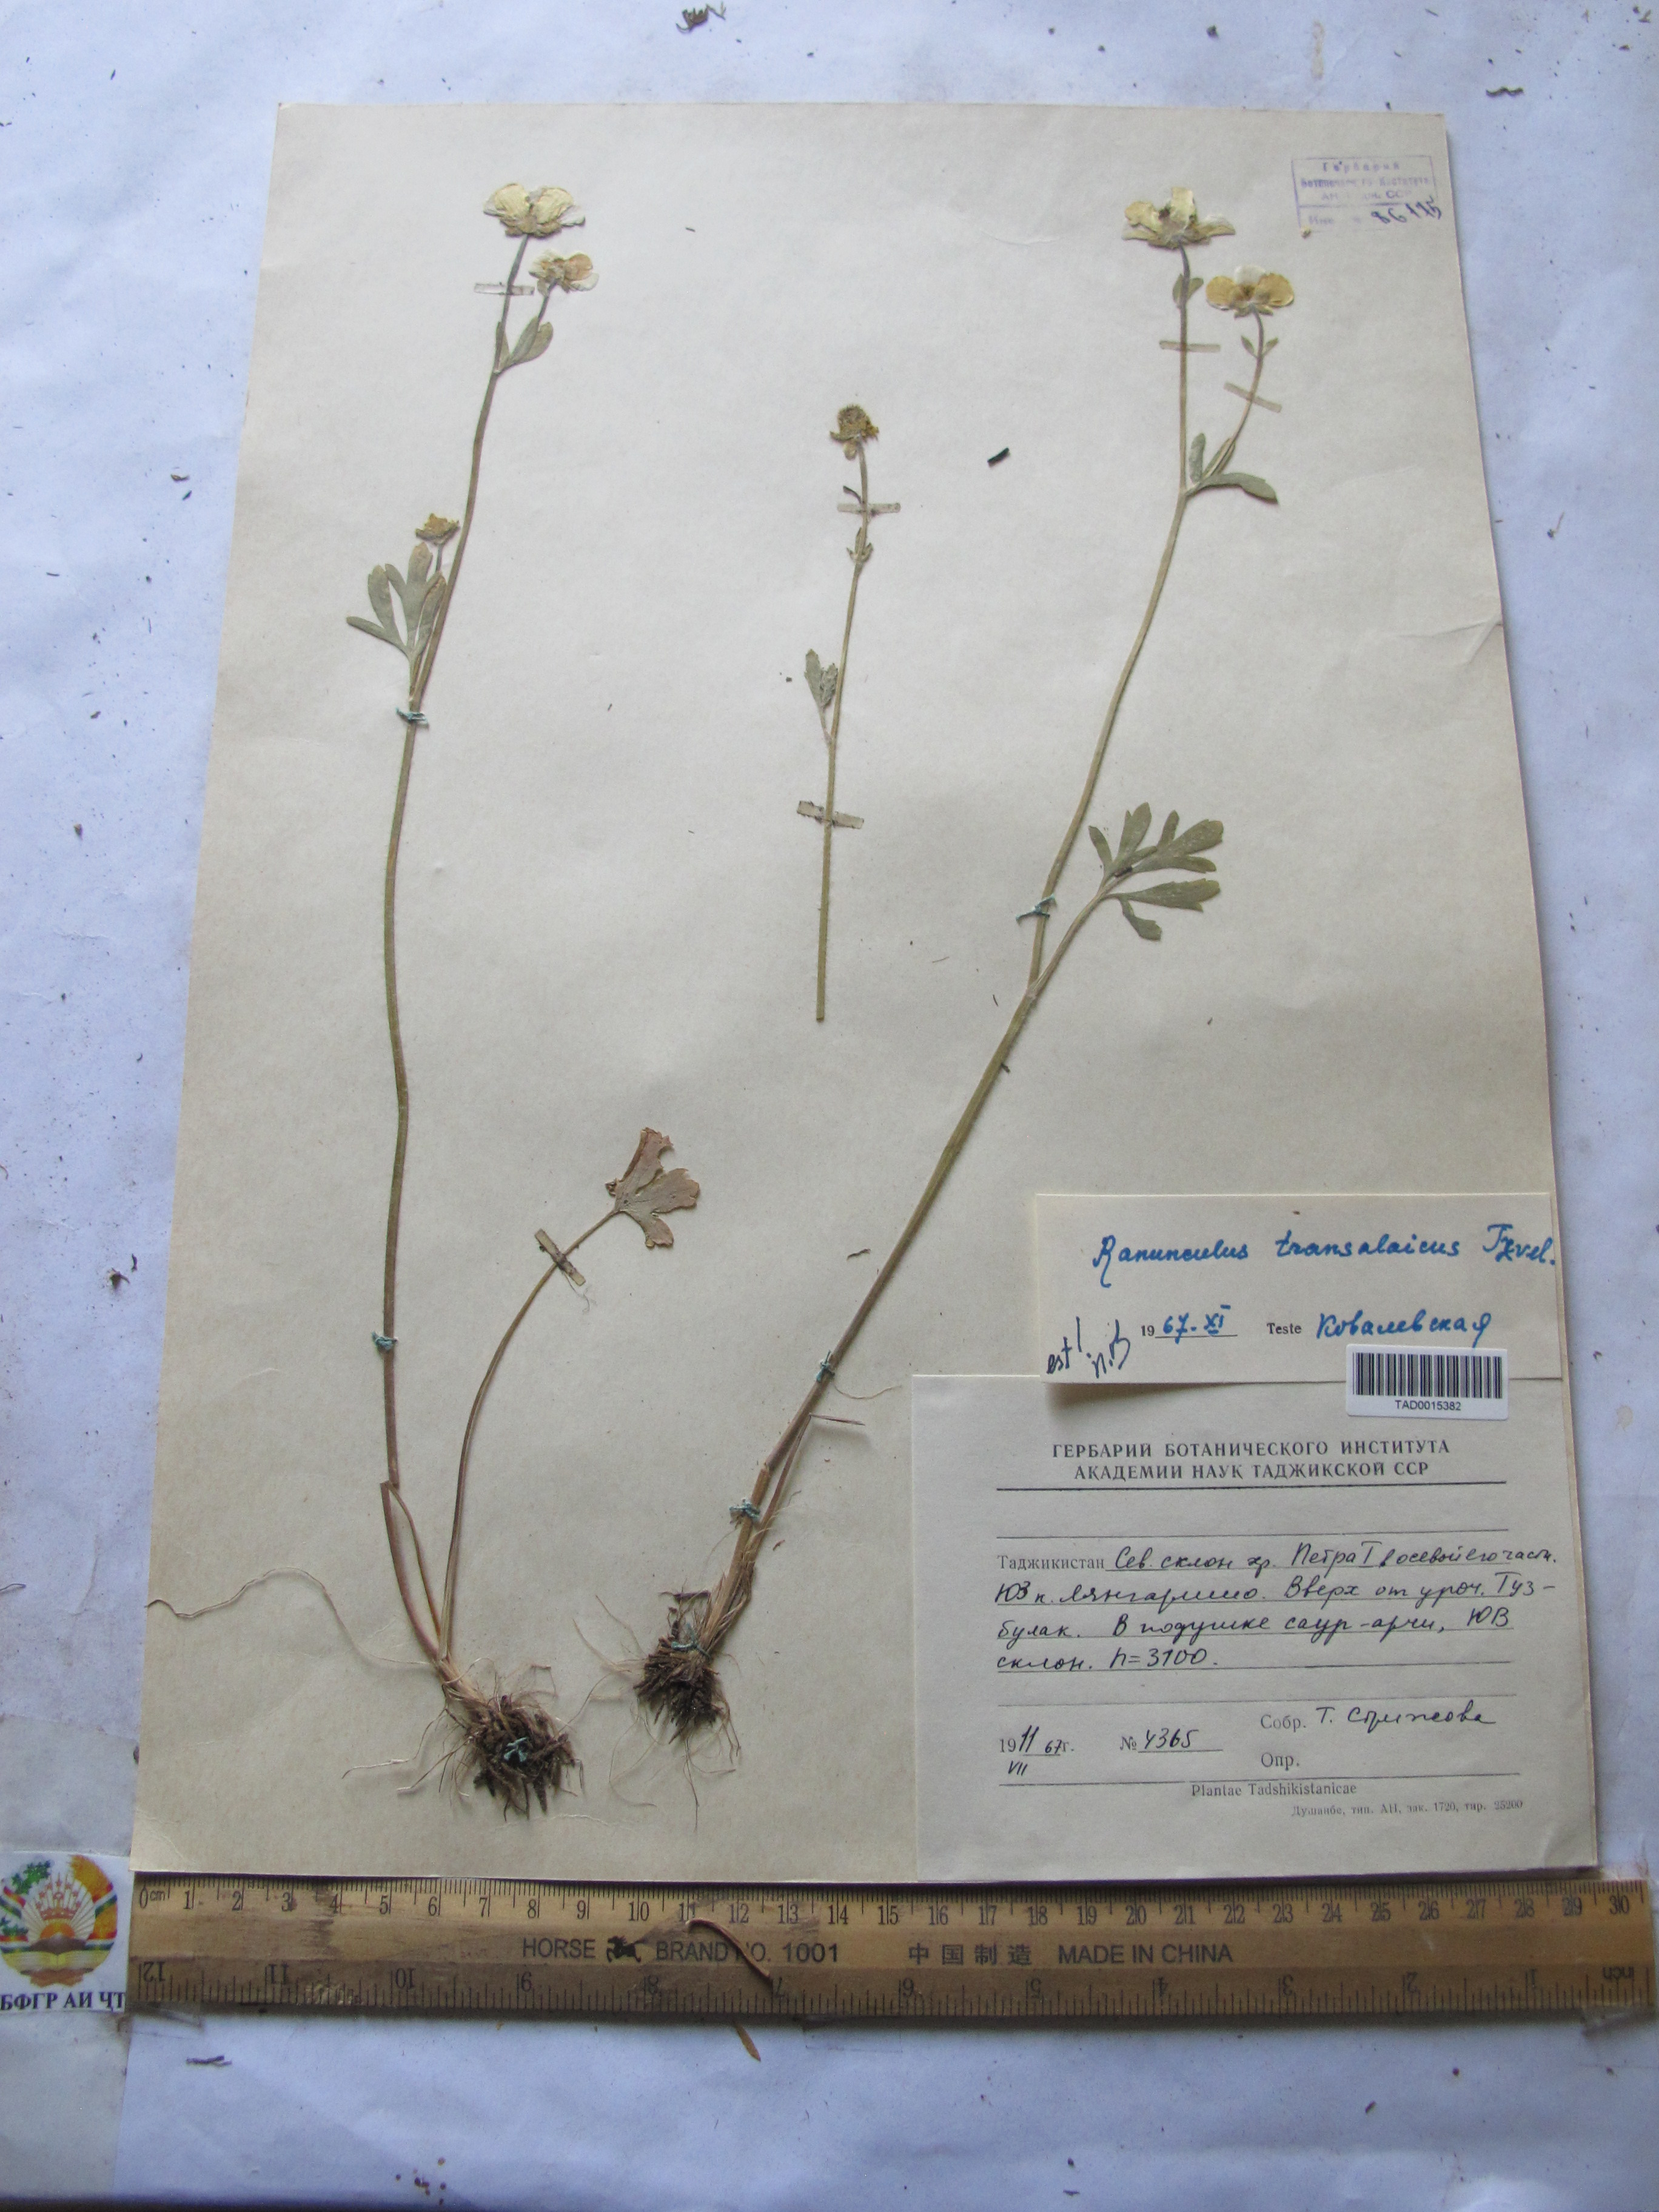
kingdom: Plantae
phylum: Tracheophyta
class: Magnoliopsida
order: Ranunculales
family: Ranunculaceae
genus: Ranunculus
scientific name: Ranunculus transalaicus
